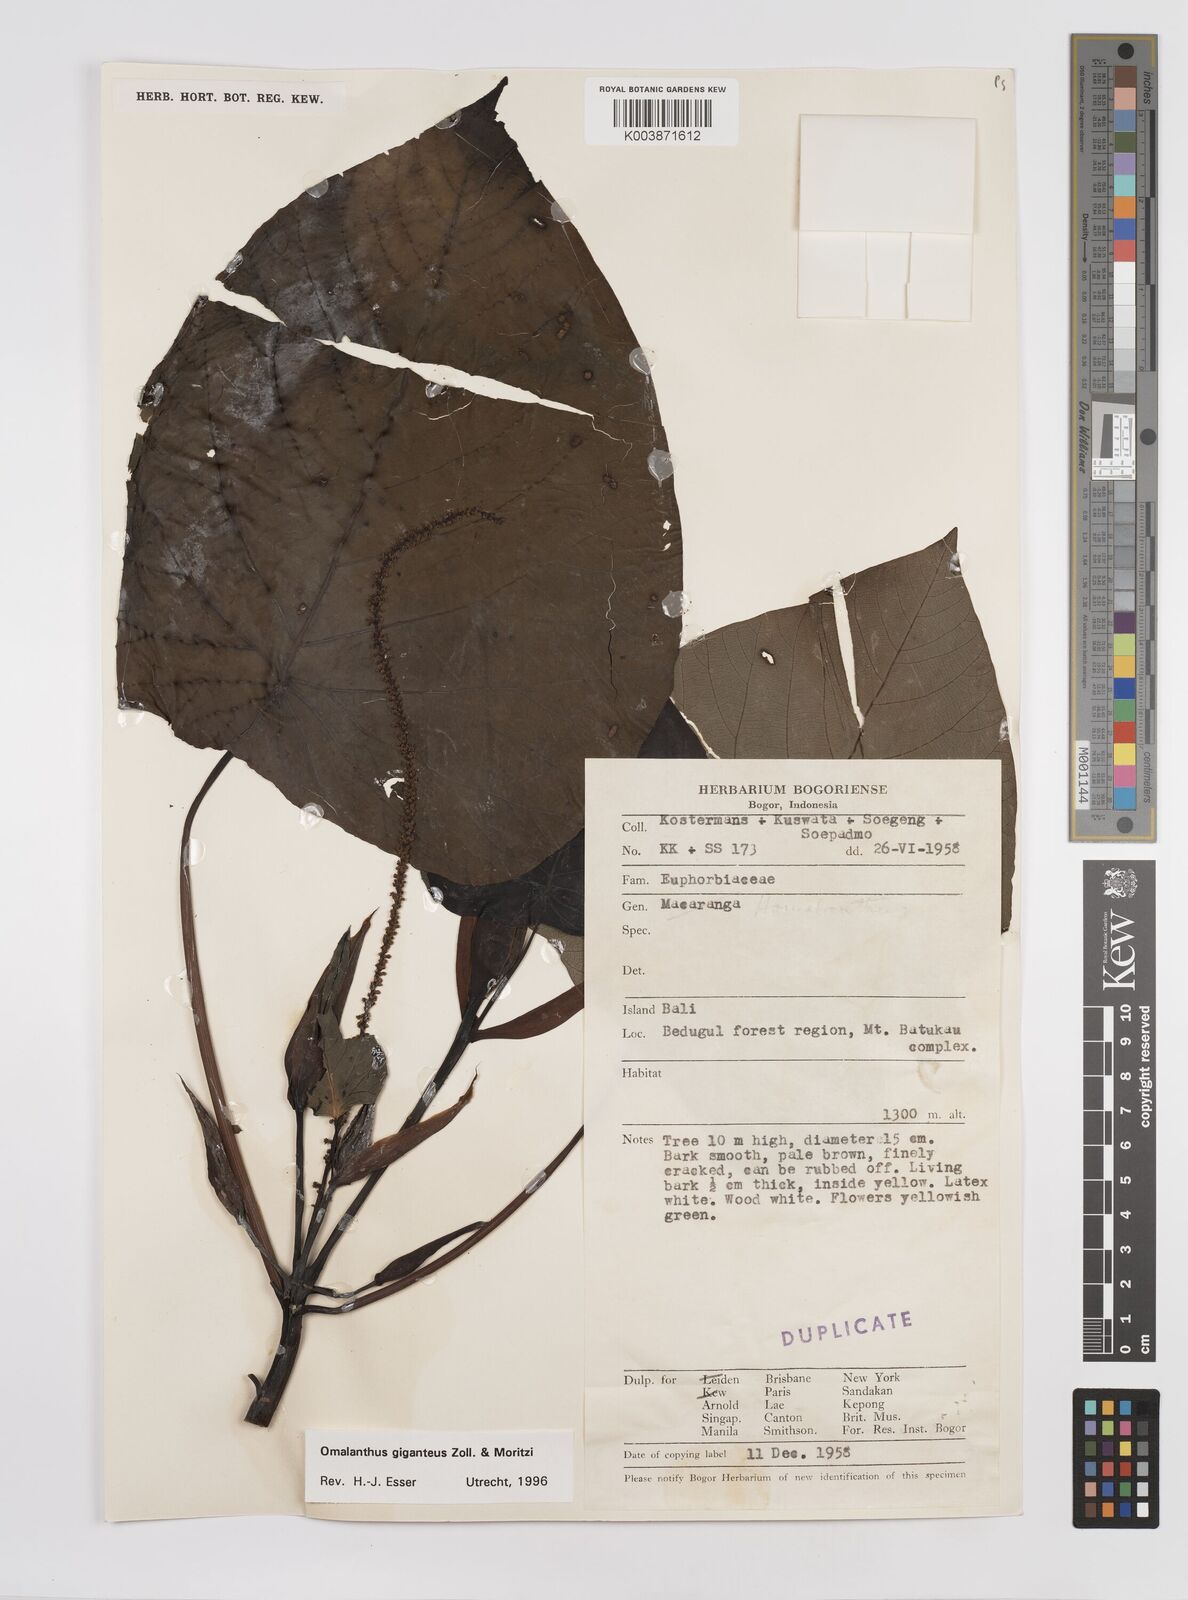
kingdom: Plantae
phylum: Tracheophyta
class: Magnoliopsida
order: Malpighiales
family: Euphorbiaceae
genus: Homalanthus
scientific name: Homalanthus giganteus
